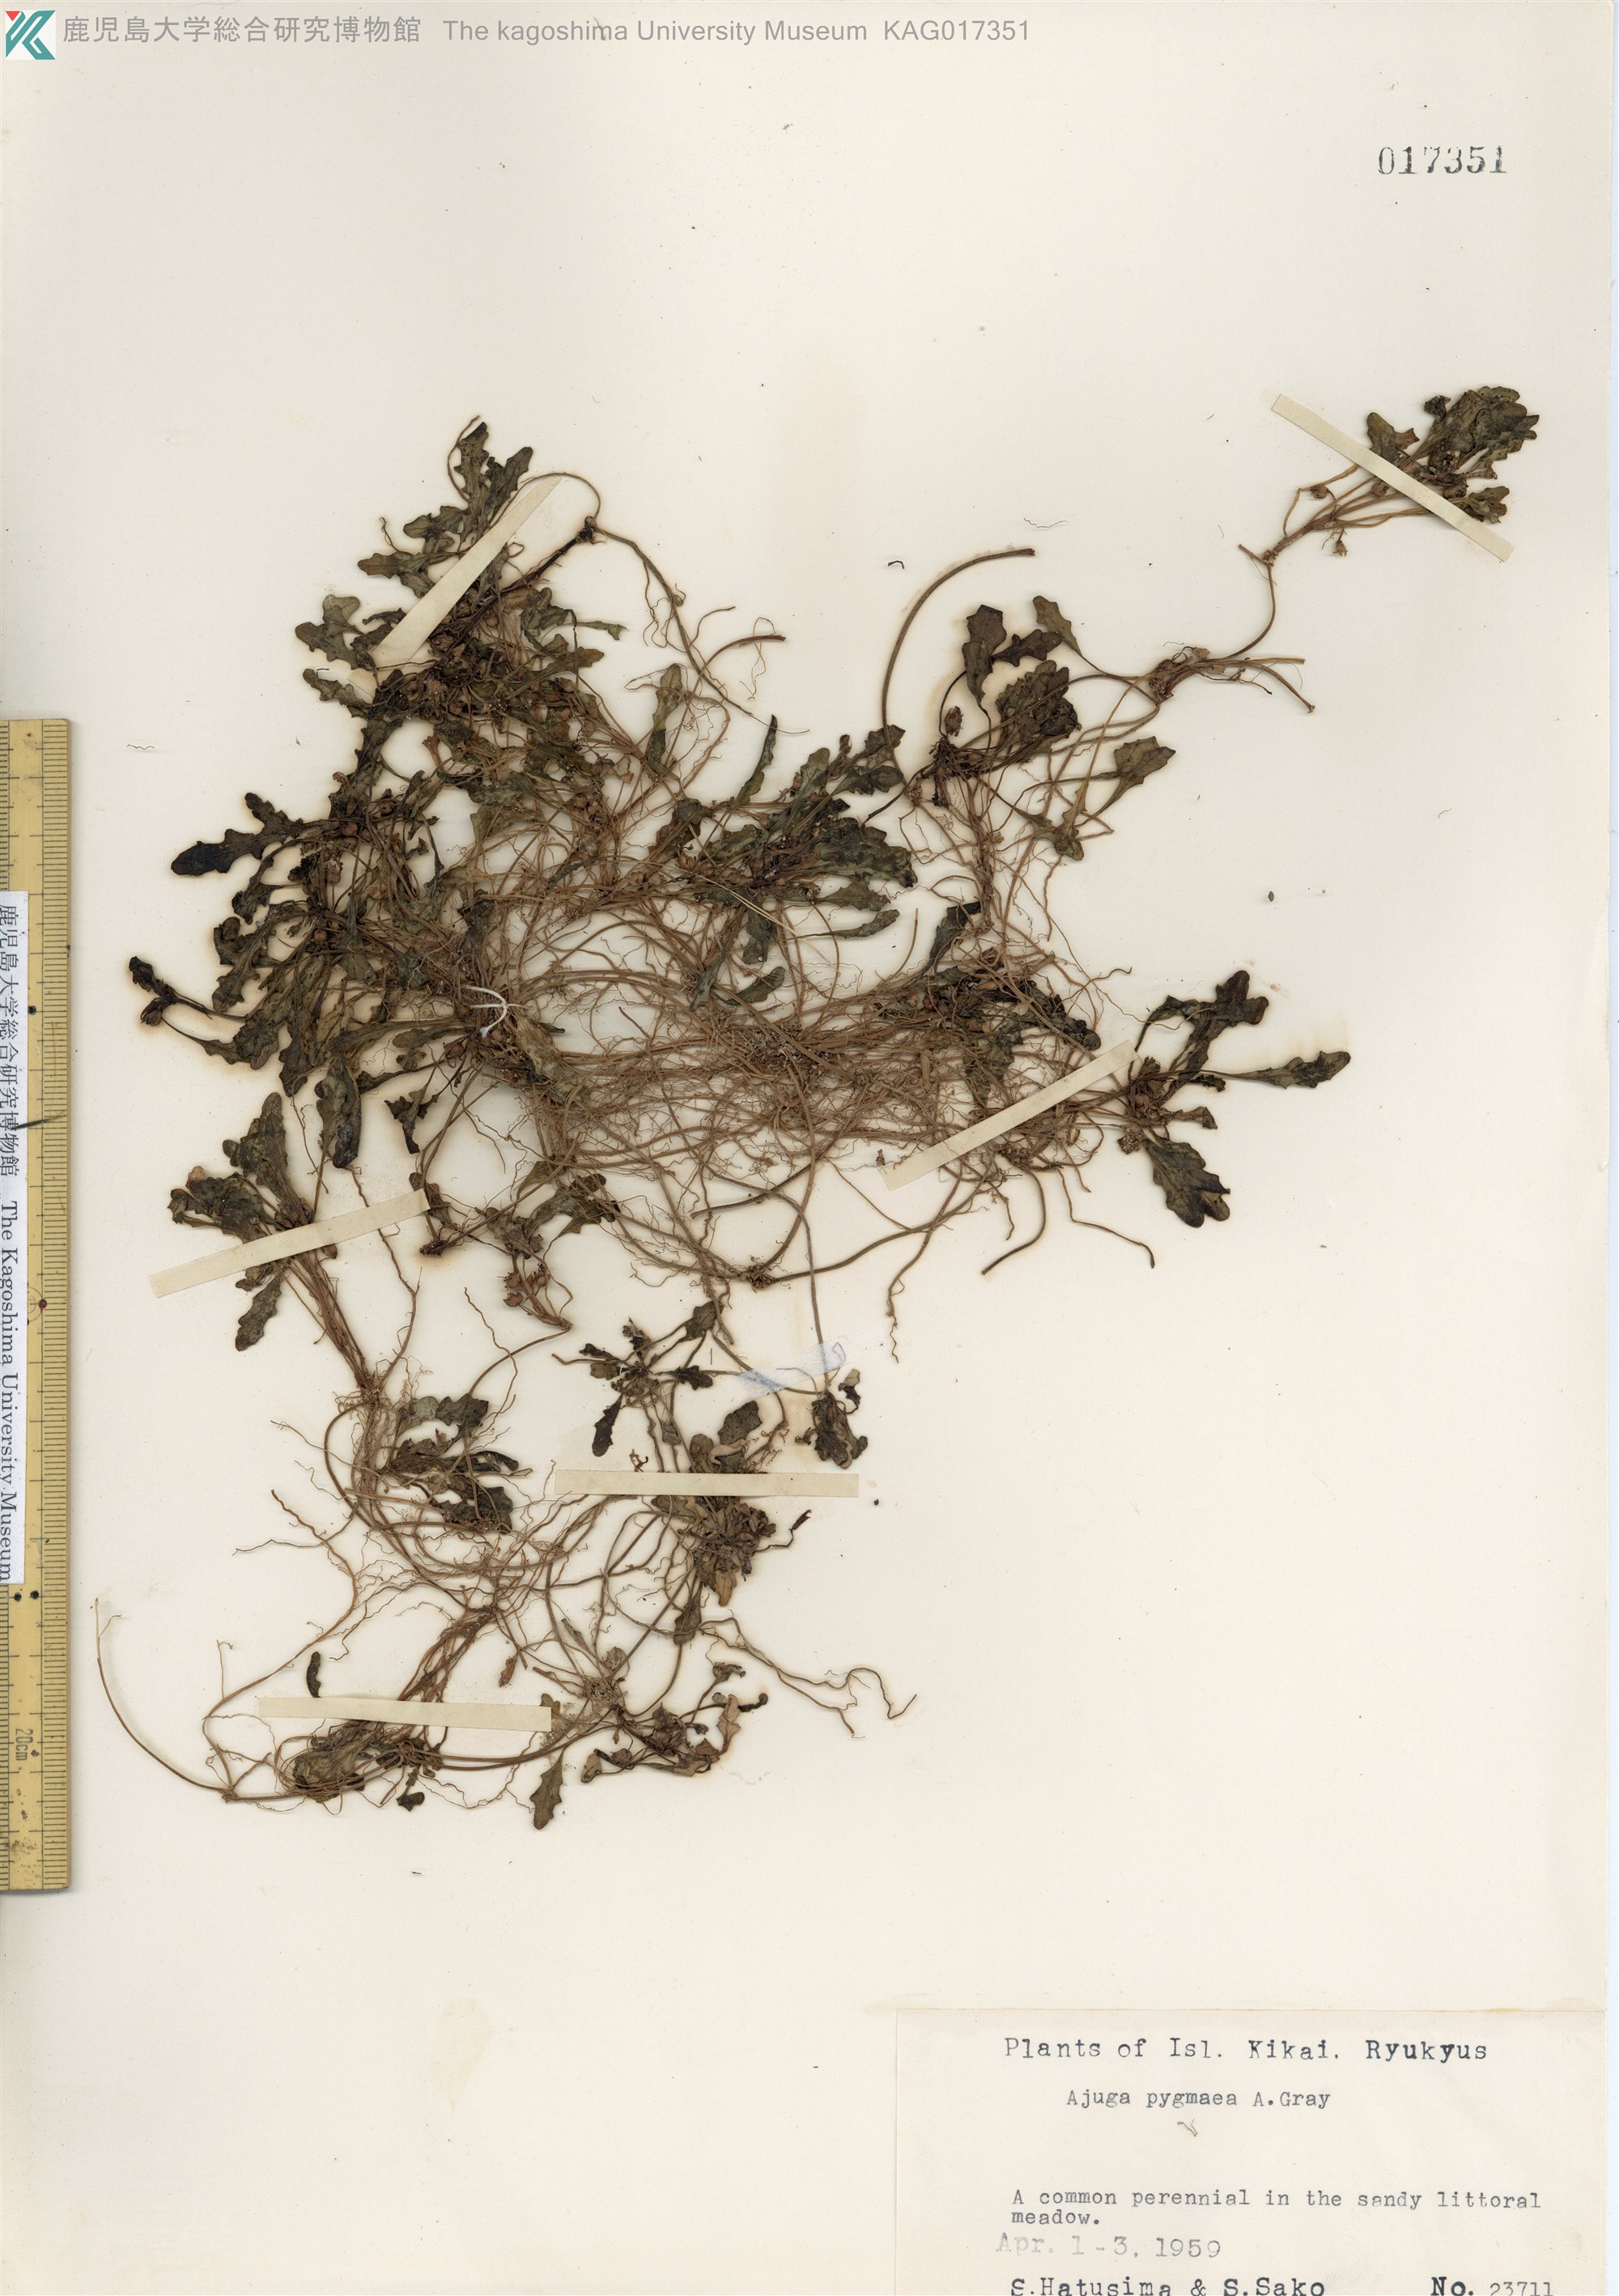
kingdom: Plantae
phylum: Tracheophyta
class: Magnoliopsida
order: Lamiales
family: Lamiaceae
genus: Ajuga
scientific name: Ajuga pygmaea
